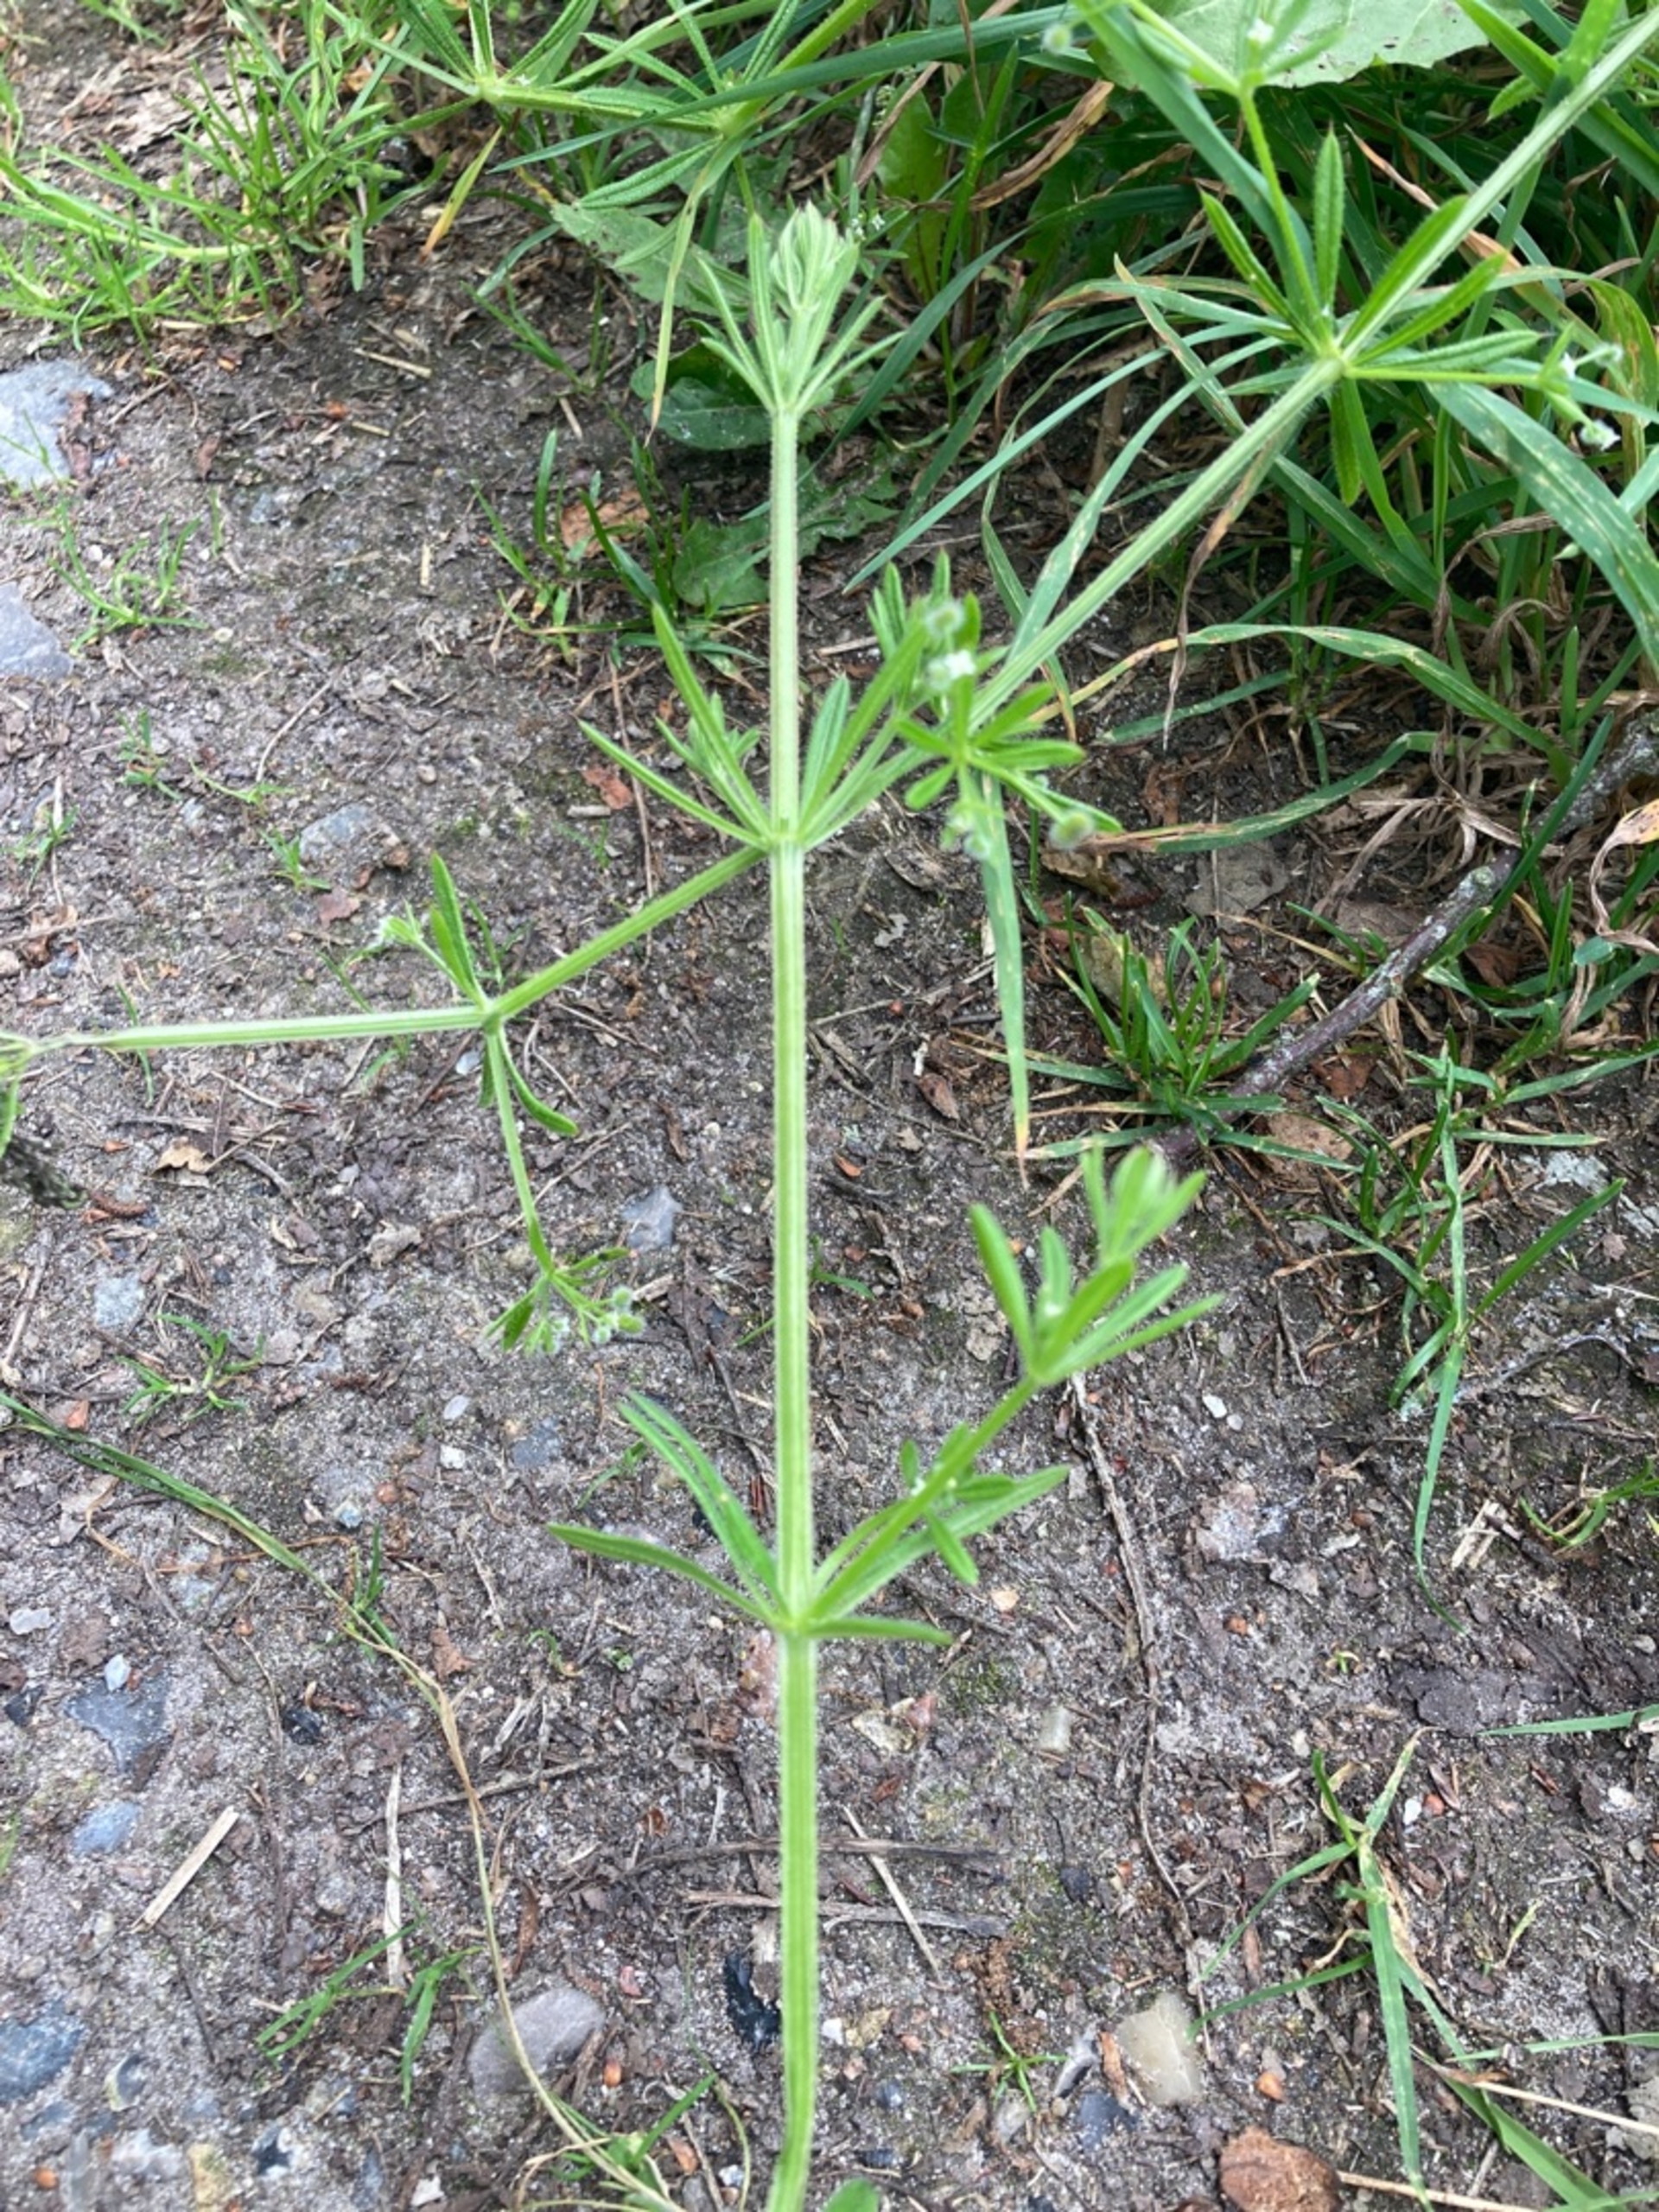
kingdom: Plantae
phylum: Tracheophyta
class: Magnoliopsida
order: Gentianales
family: Rubiaceae
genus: Galium
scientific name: Galium aparine
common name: Burre-snerre
